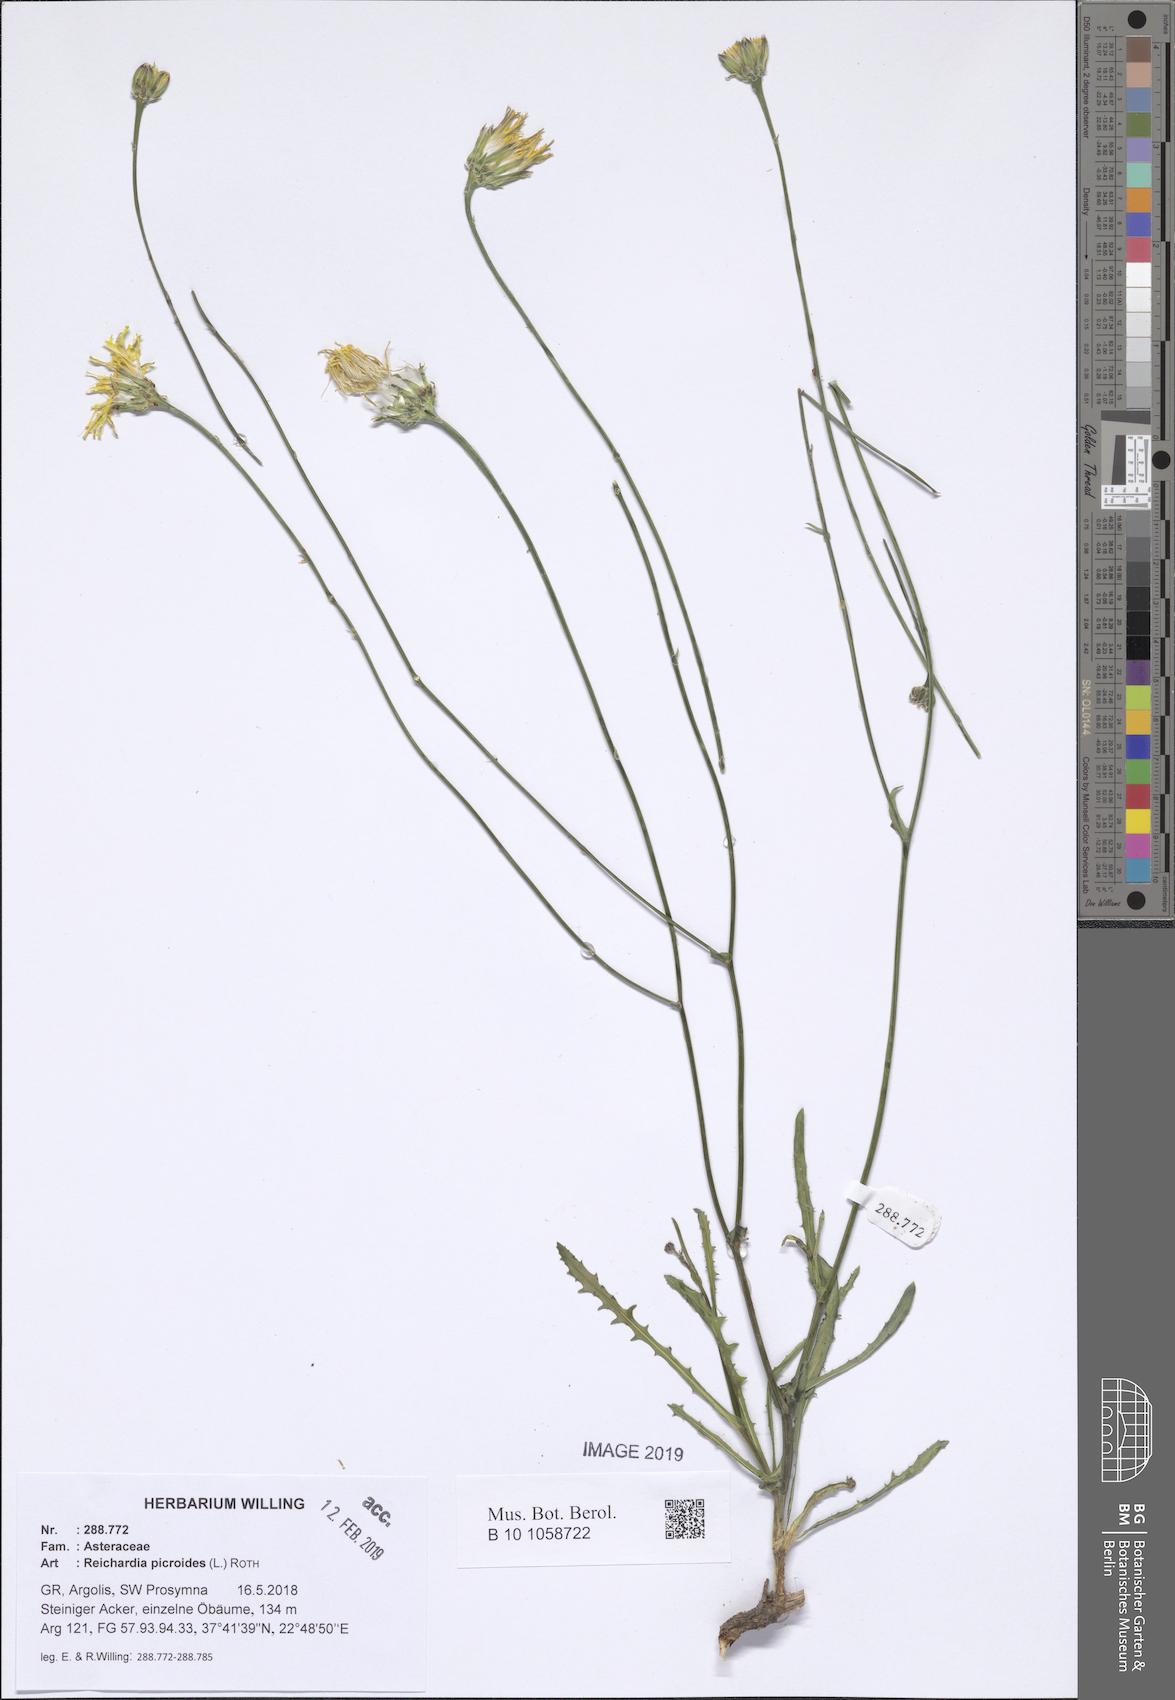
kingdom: Plantae
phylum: Tracheophyta
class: Magnoliopsida
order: Asterales
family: Asteraceae
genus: Reichardia
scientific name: Reichardia picroides
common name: Common brighteyes
